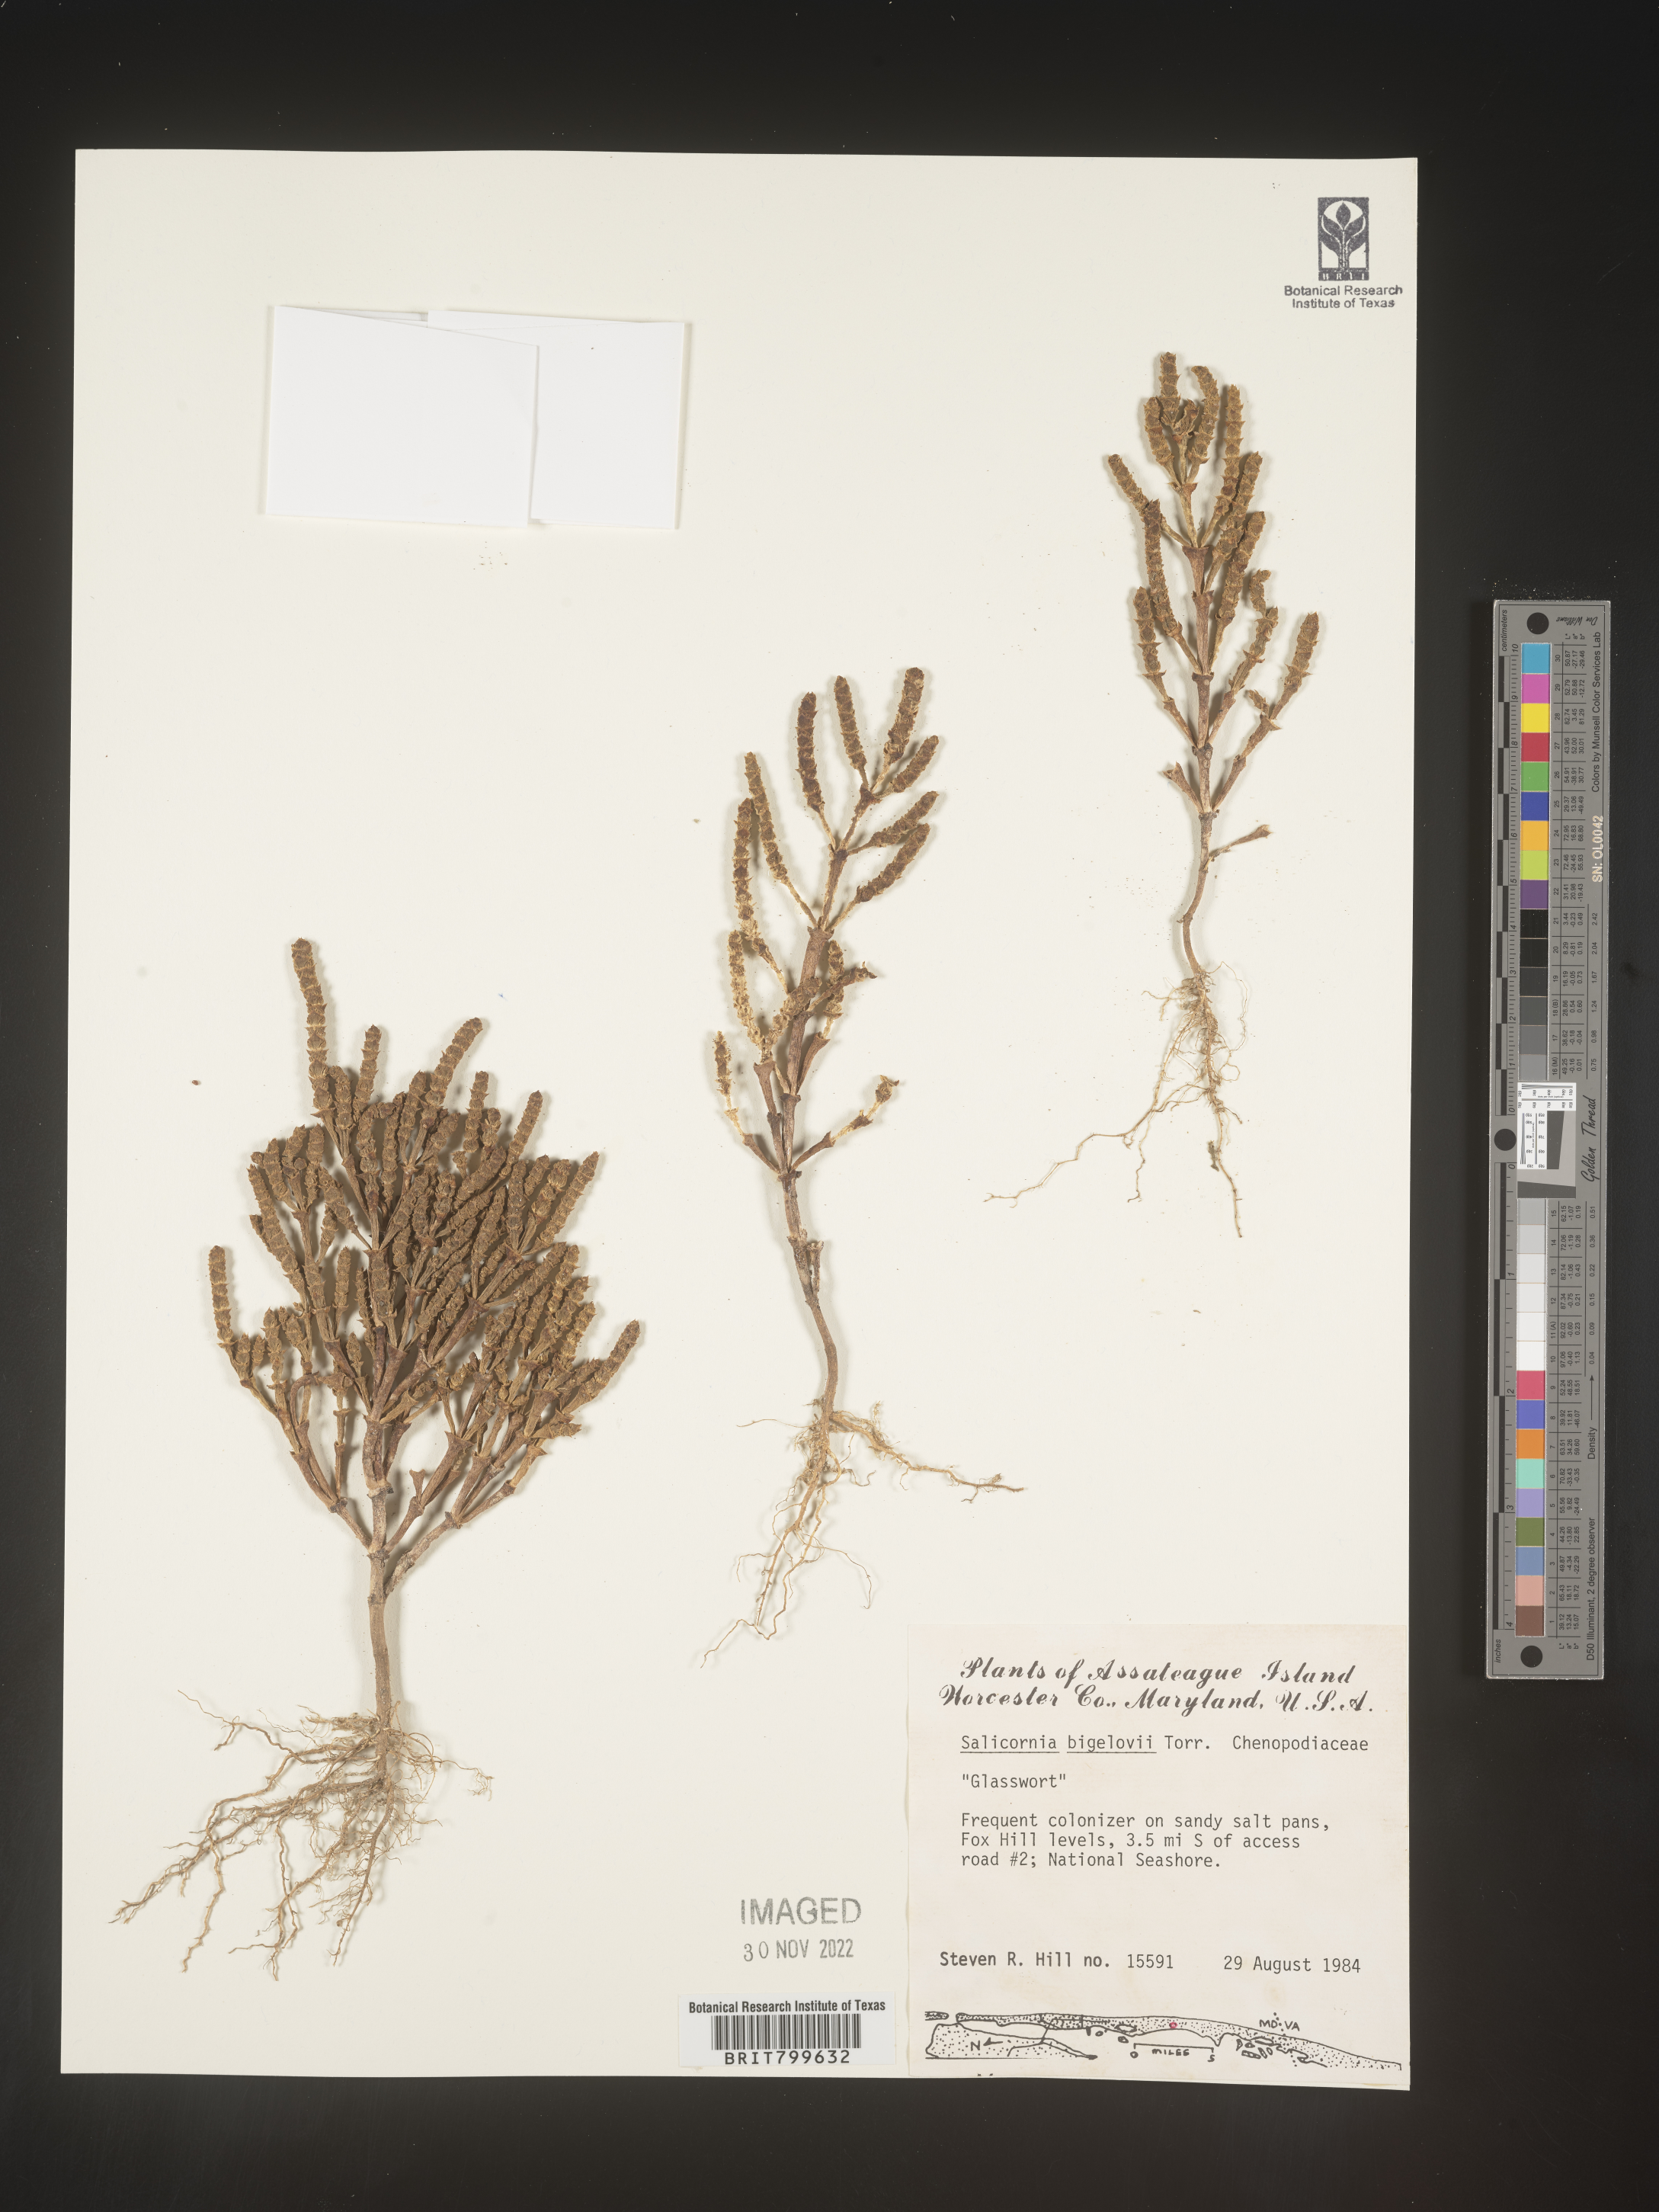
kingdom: Plantae
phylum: Tracheophyta
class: Magnoliopsida
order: Caryophyllales
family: Amaranthaceae
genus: Salicornia
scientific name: Salicornia bigelovii
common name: Dwarf glasswort
